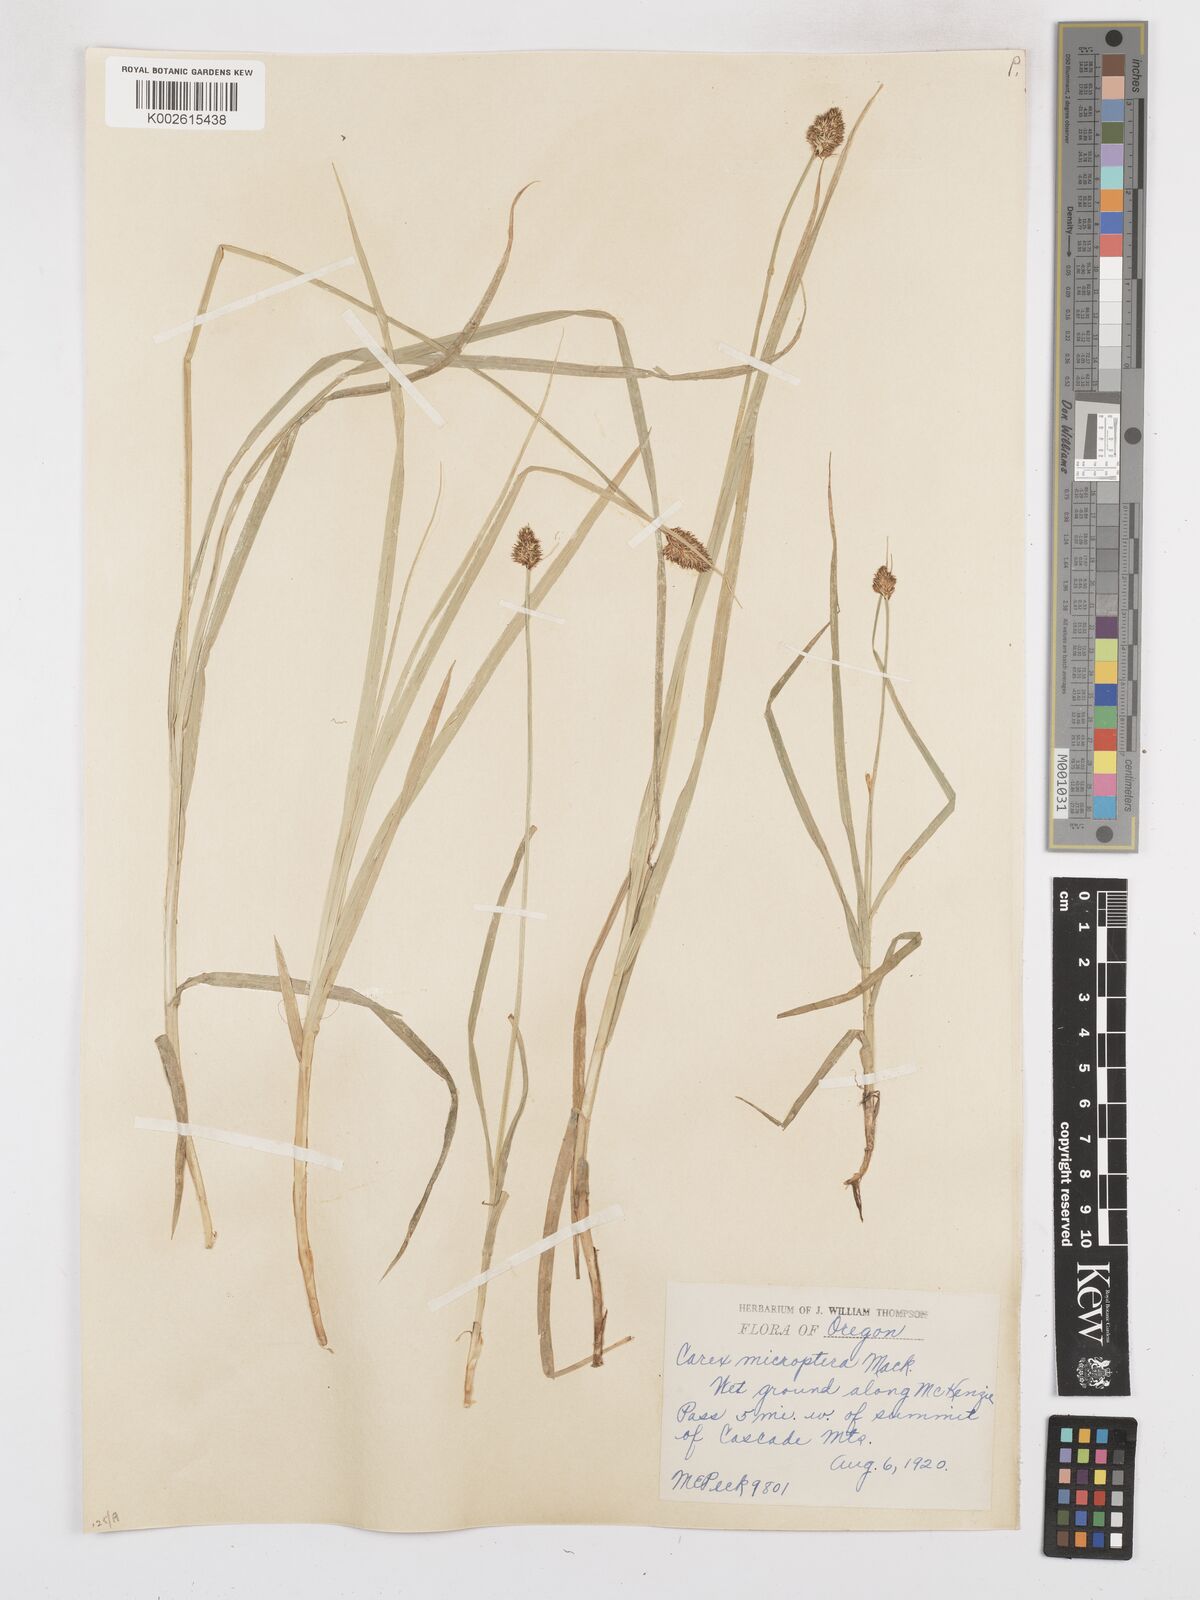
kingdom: Plantae
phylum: Tracheophyta
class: Liliopsida
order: Poales
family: Cyperaceae
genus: Carex
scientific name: Carex microptera
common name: Oval-headed sedge
